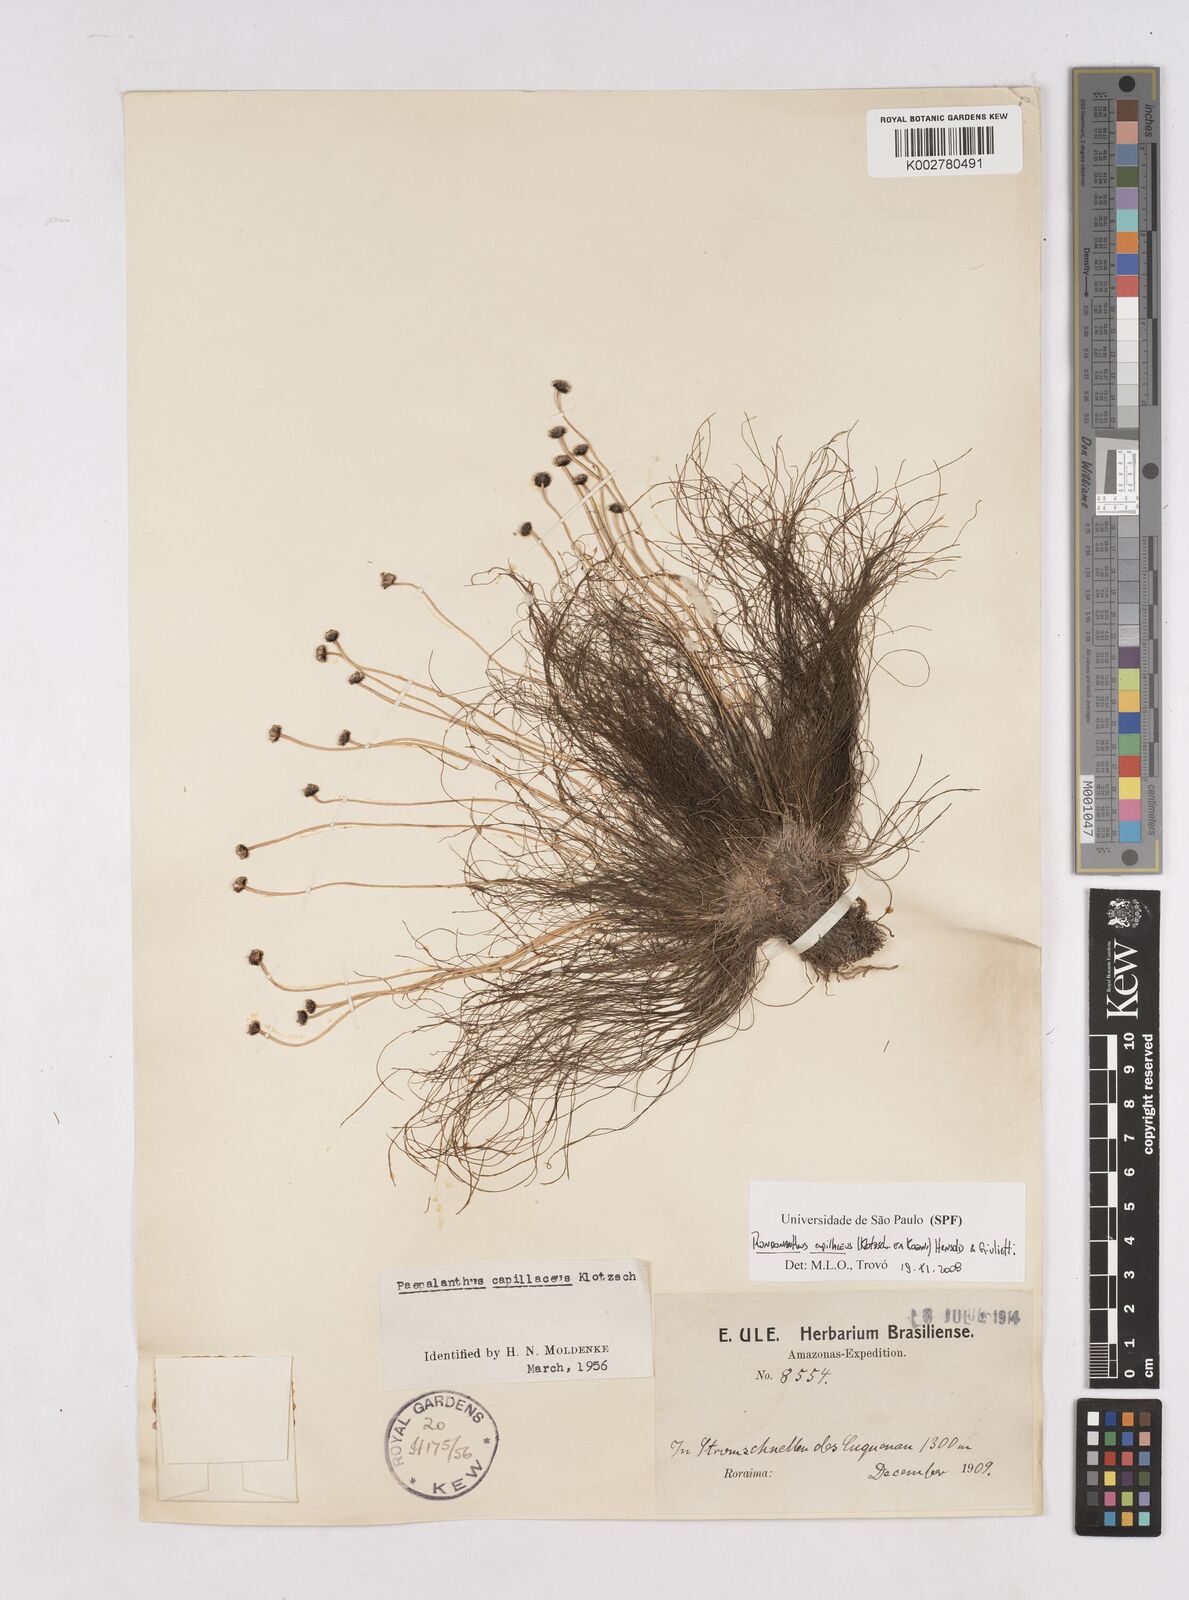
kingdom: Plantae
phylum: Tracheophyta
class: Liliopsida
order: Poales
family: Eriocaulaceae
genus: Rondonanthus
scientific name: Rondonanthus capillaceus
